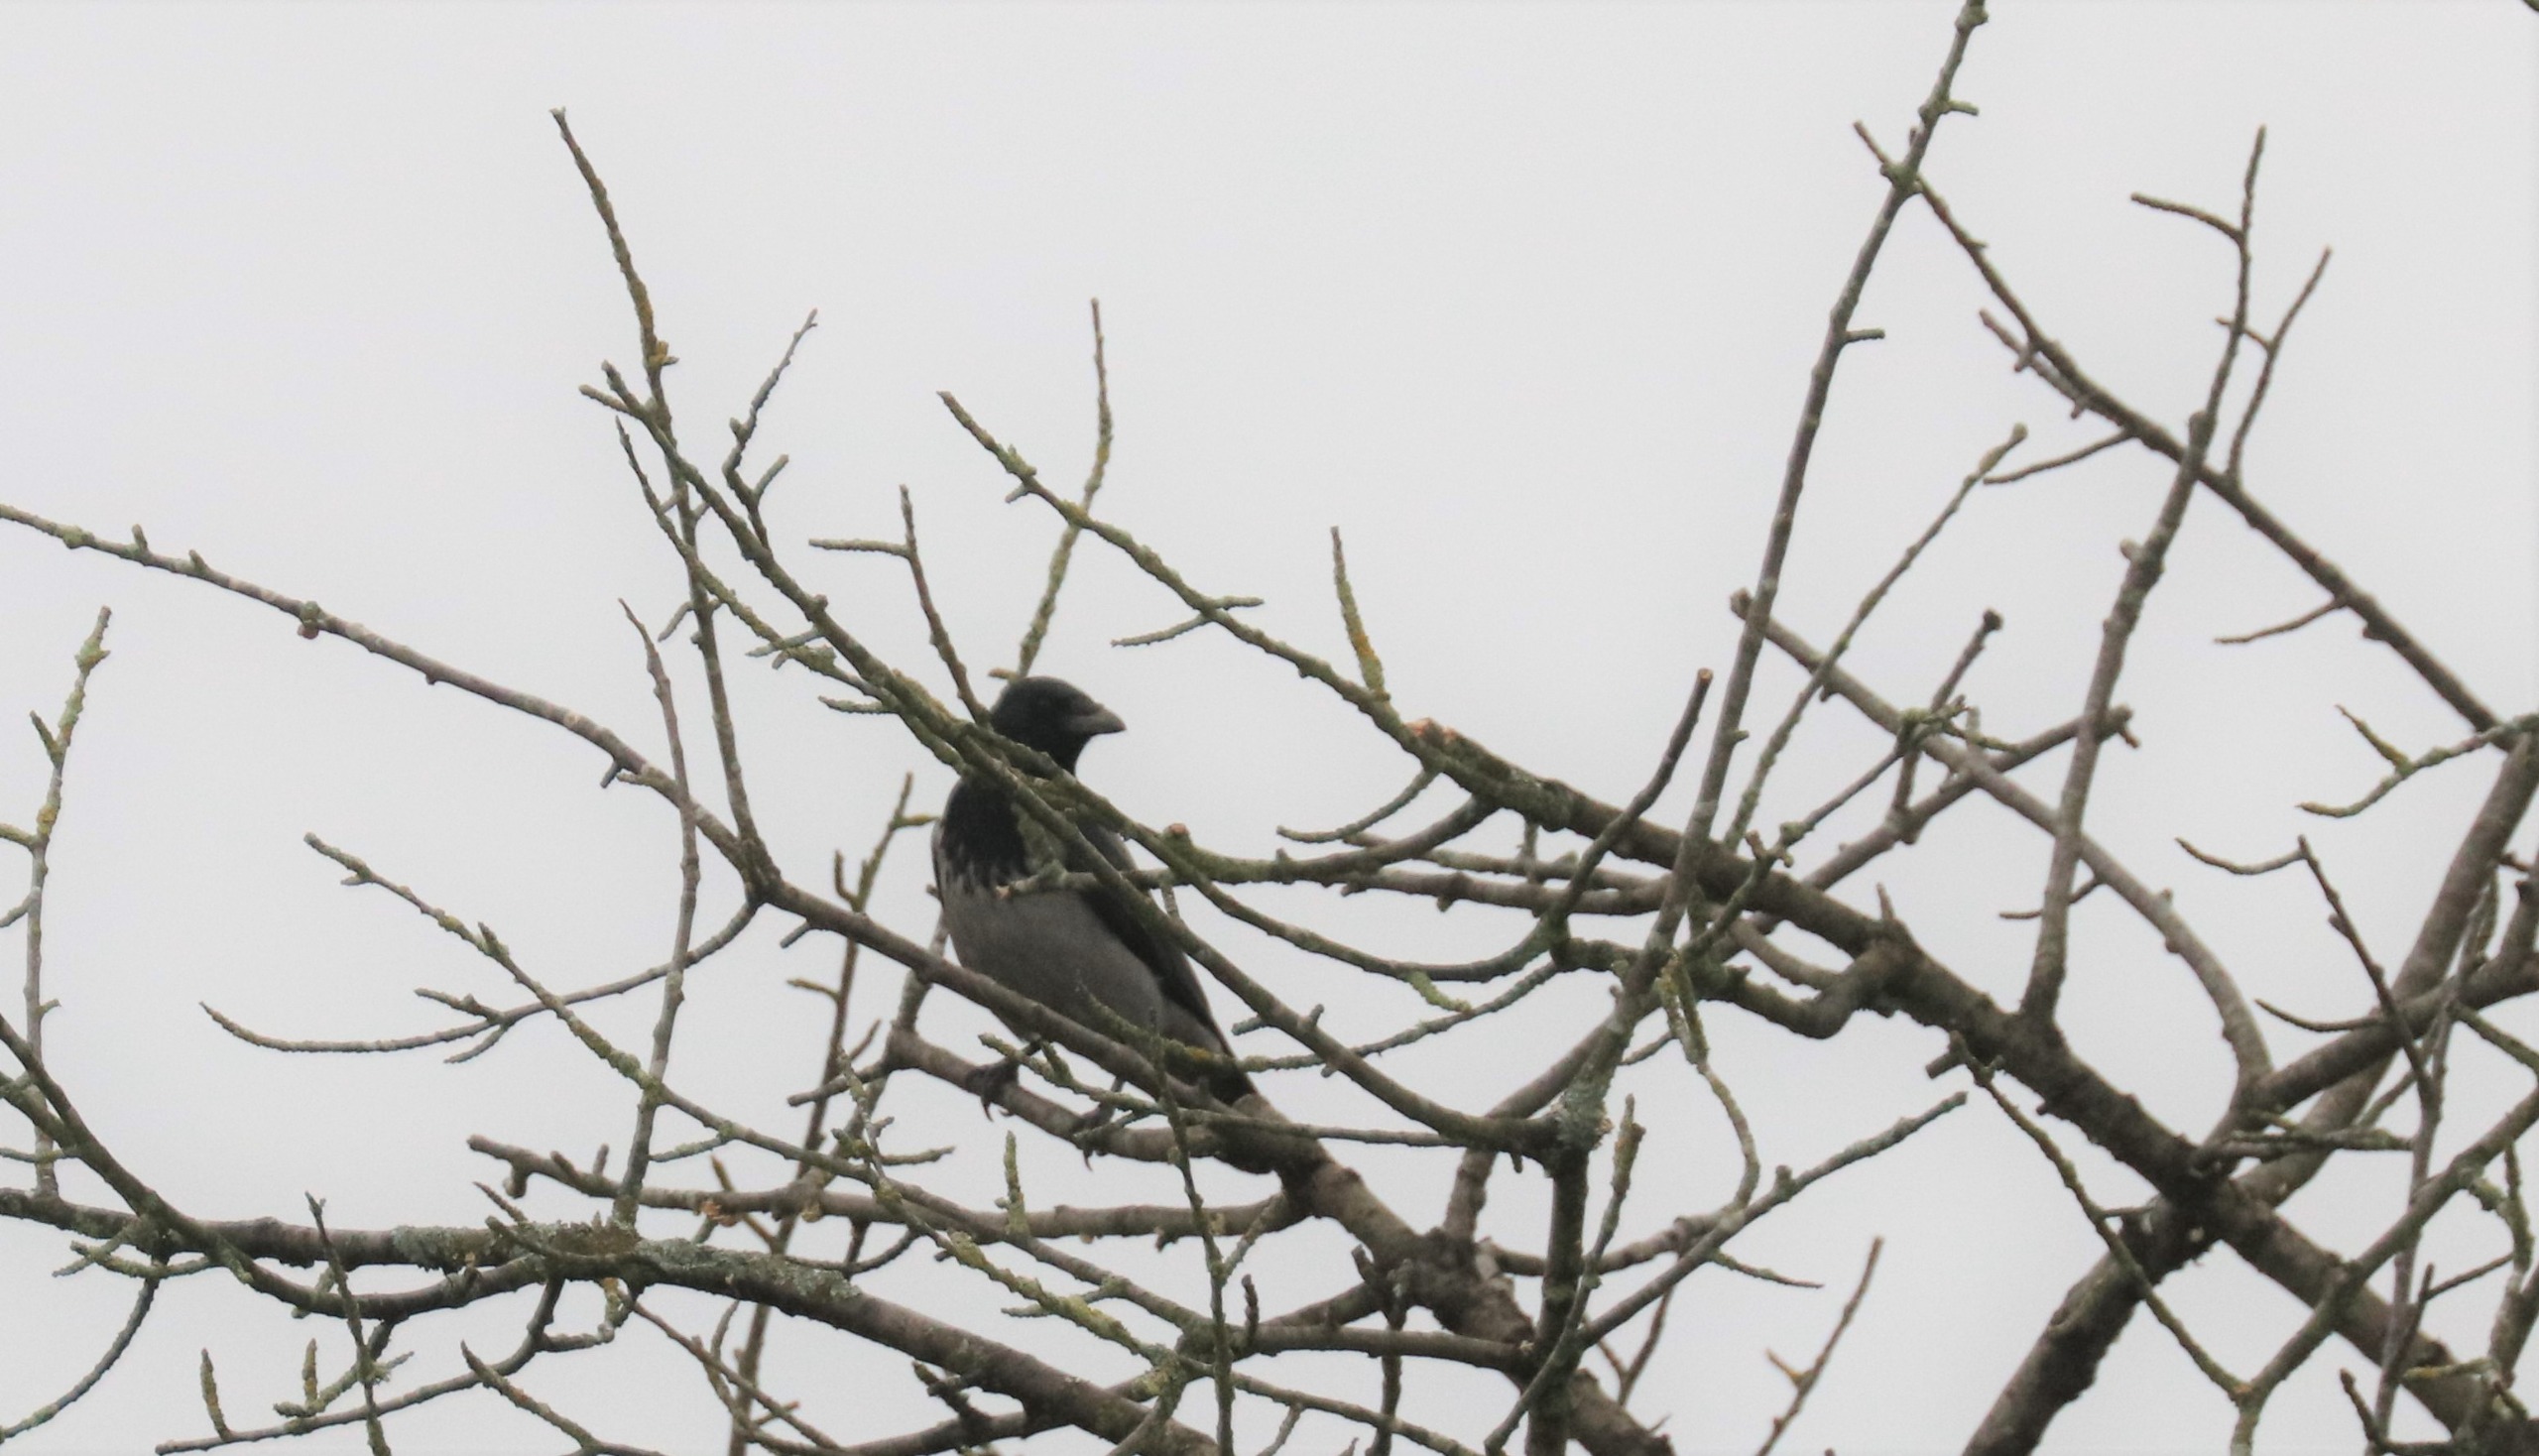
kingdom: Animalia
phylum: Chordata
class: Aves
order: Passeriformes
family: Corvidae
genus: Corvus
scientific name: Corvus cornix
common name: Gråkrage
